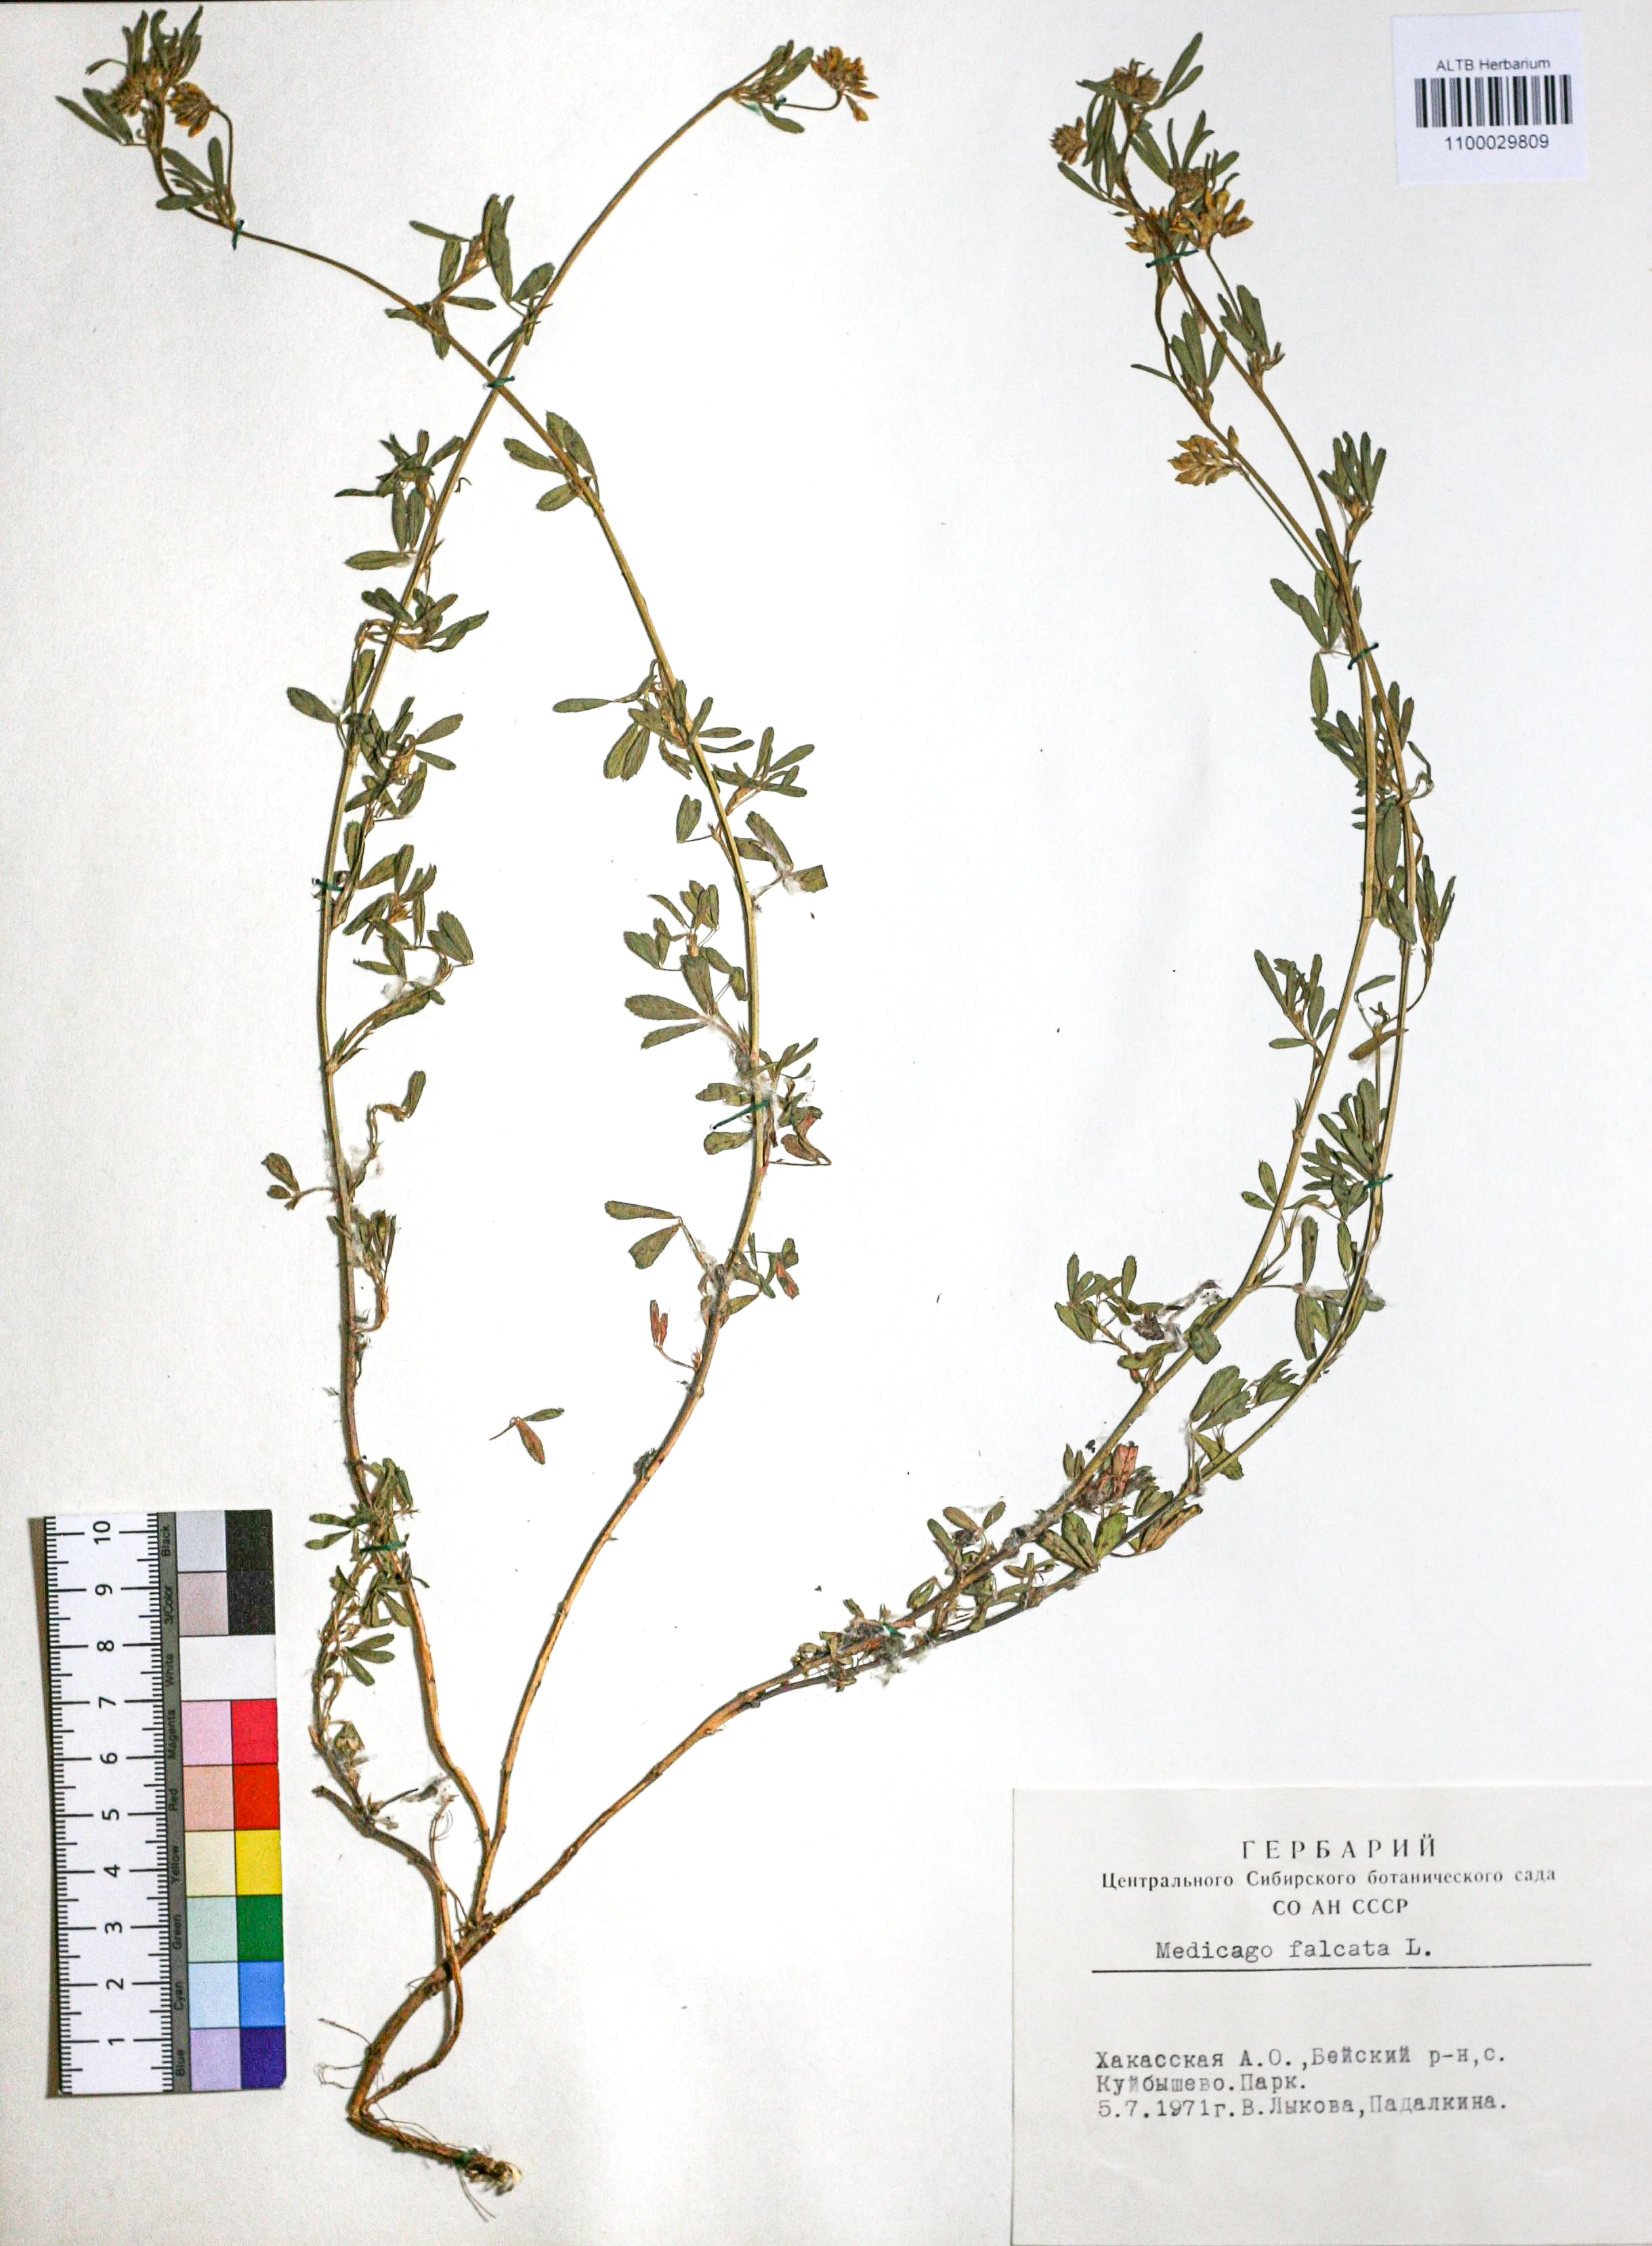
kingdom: Plantae
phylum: Tracheophyta
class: Magnoliopsida
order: Fabales
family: Fabaceae
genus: Medicago
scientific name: Medicago falcata
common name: Sickle medick
